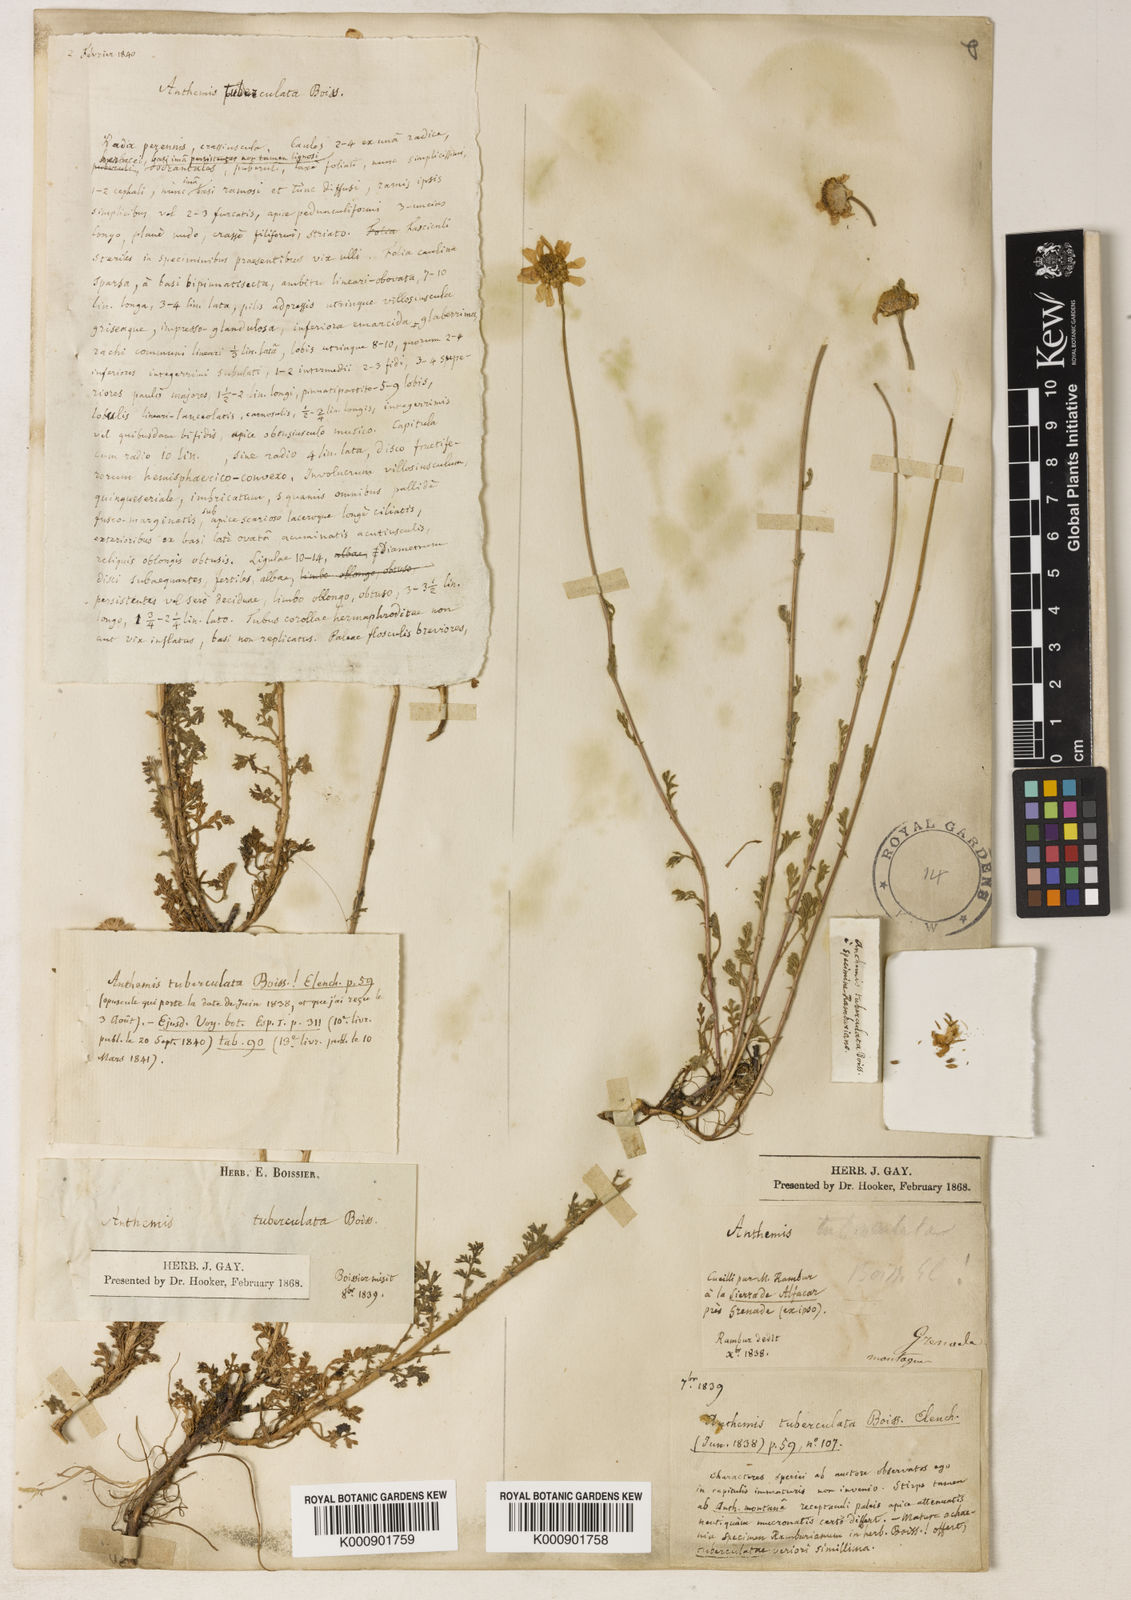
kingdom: Plantae
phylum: Tracheophyta
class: Magnoliopsida
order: Asterales
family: Asteraceae
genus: Anthemis
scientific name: Anthemis
